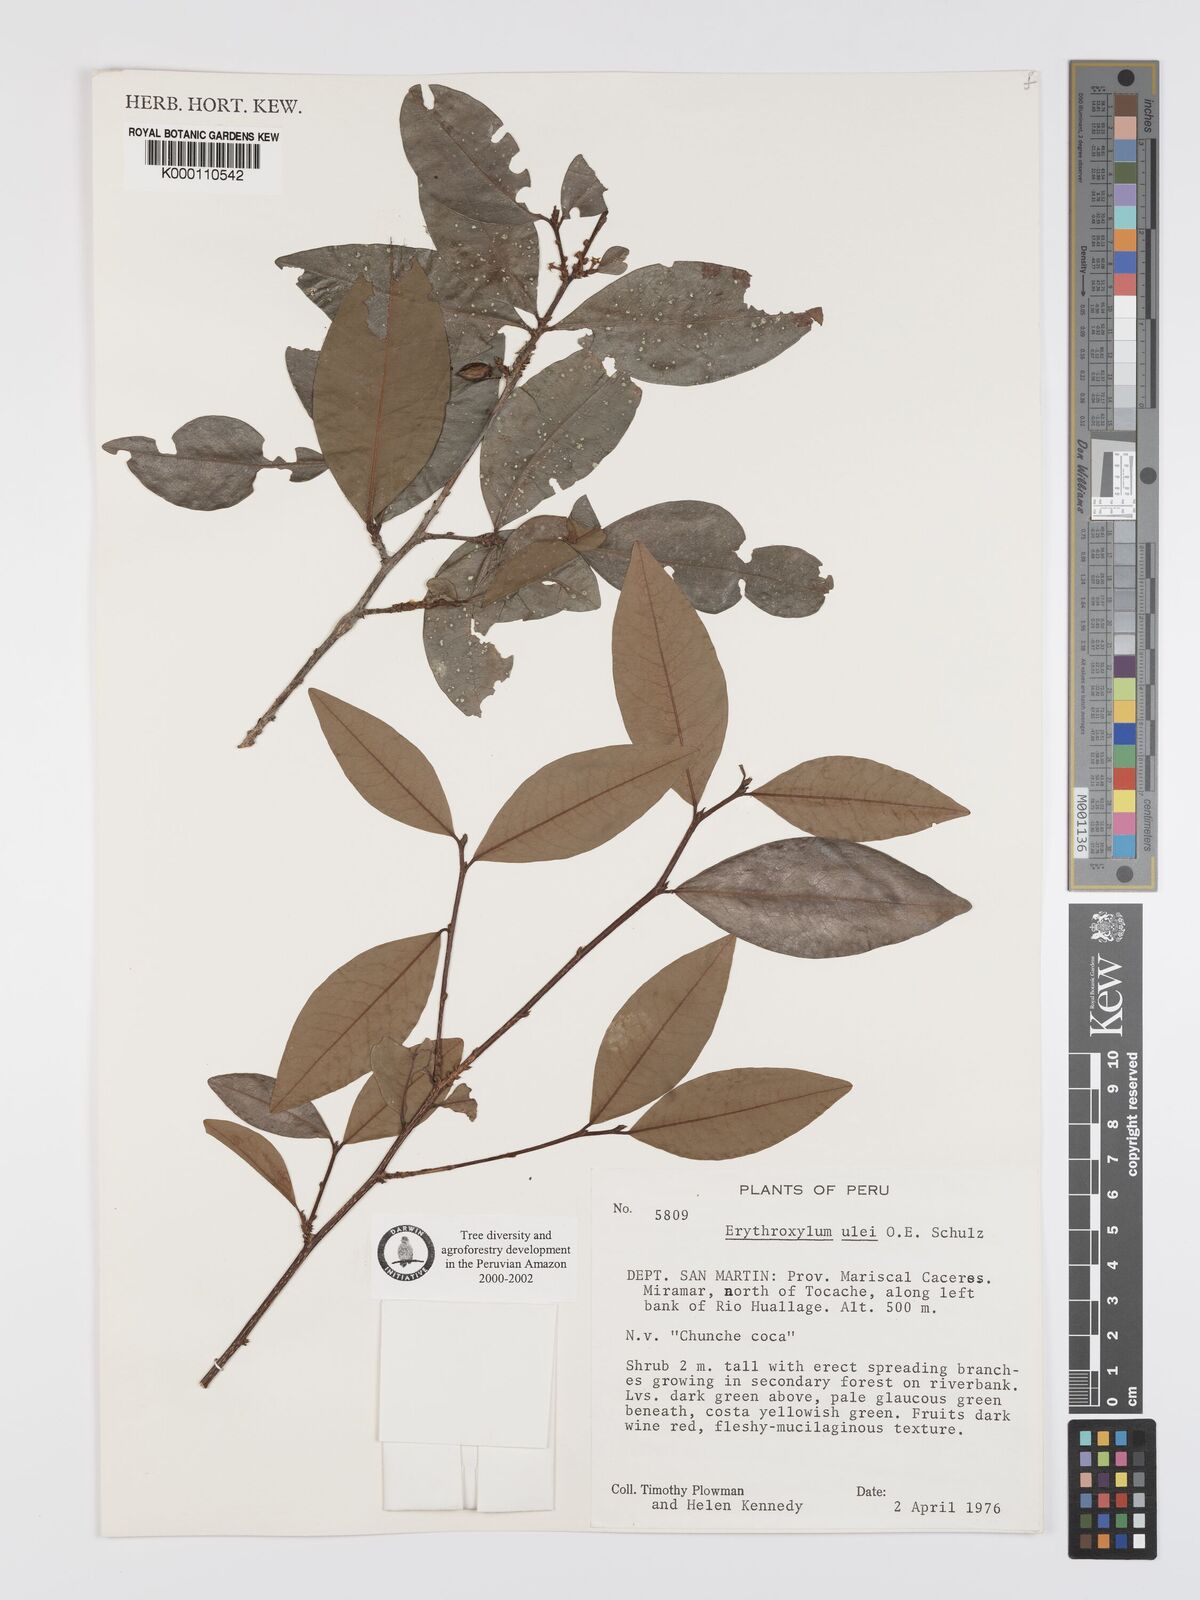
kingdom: Plantae
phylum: Tracheophyta
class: Magnoliopsida
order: Malpighiales
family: Erythroxylaceae
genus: Erythroxylum
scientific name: Erythroxylum ulei
